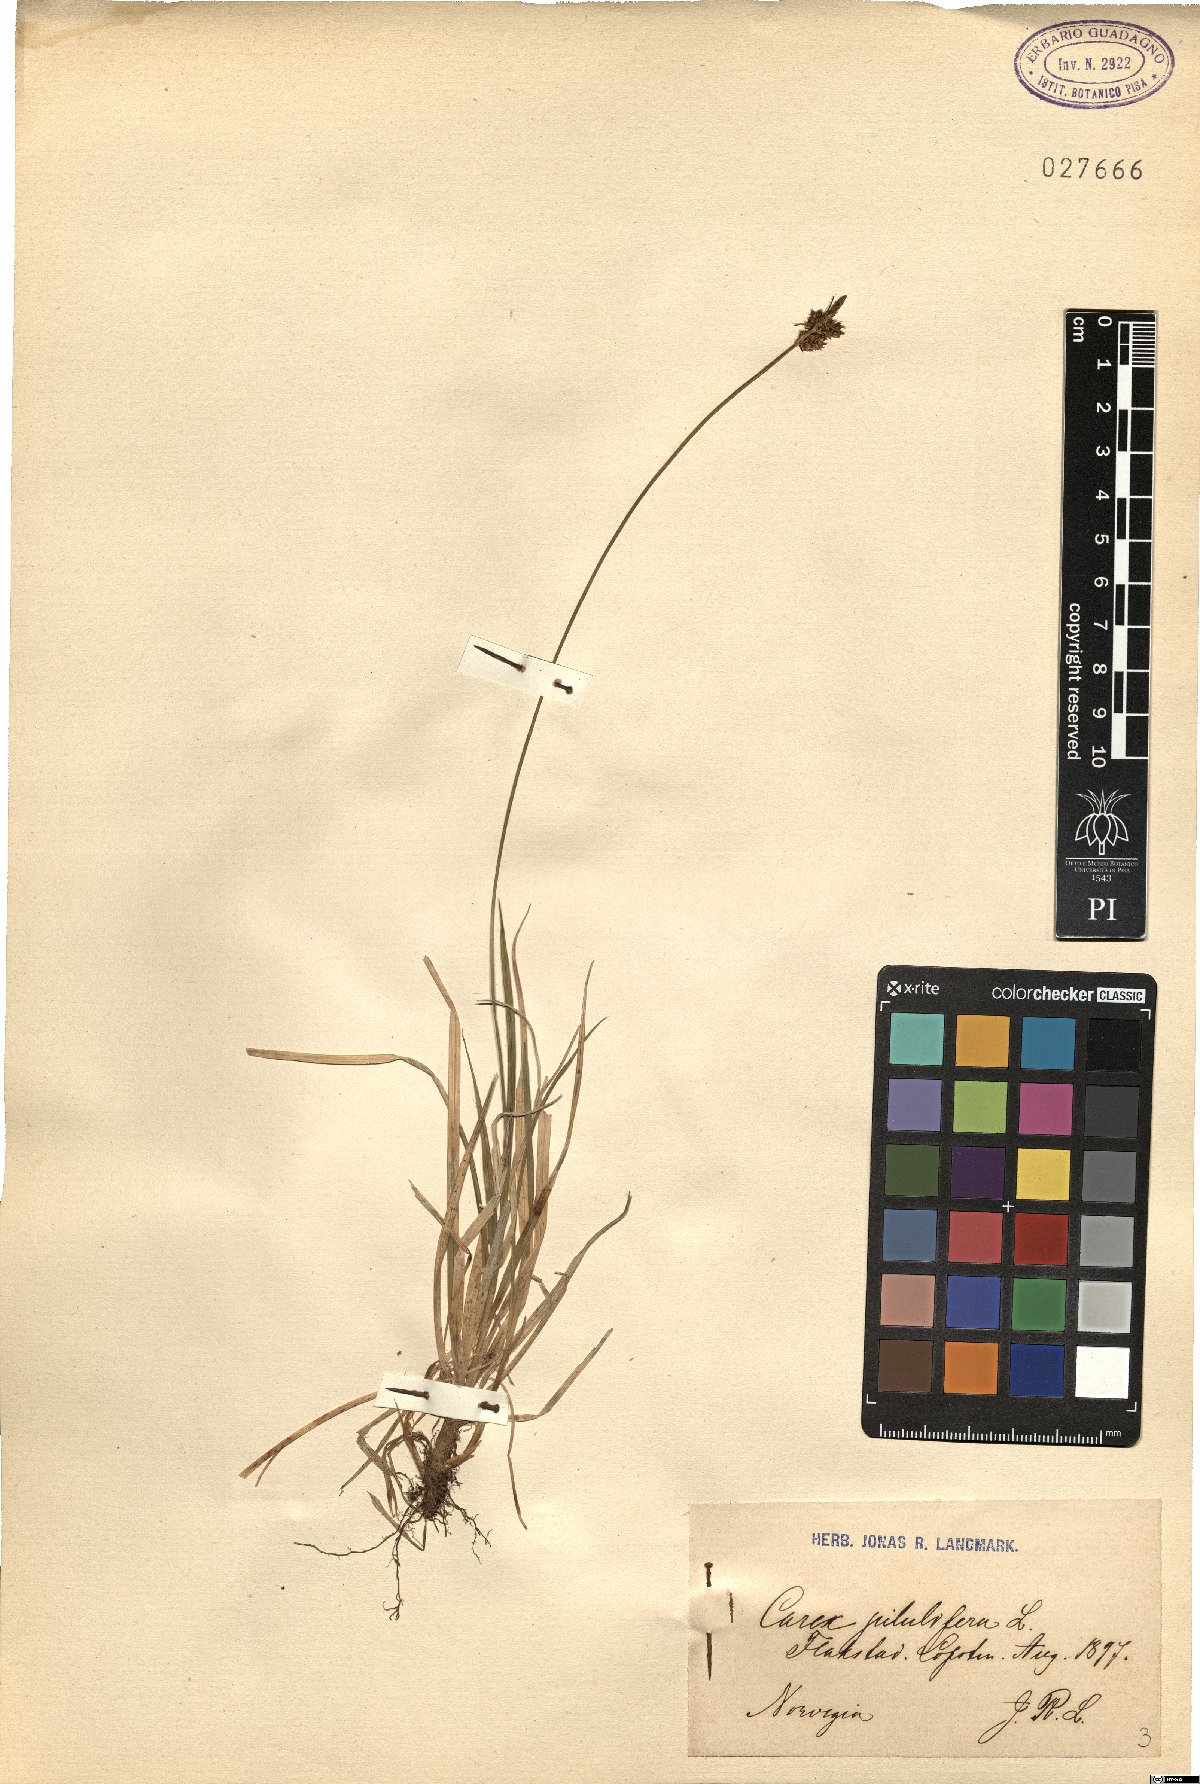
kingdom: Plantae
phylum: Tracheophyta
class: Liliopsida
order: Poales
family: Cyperaceae
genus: Carex
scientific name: Carex pilulifera
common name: Pill sedge
